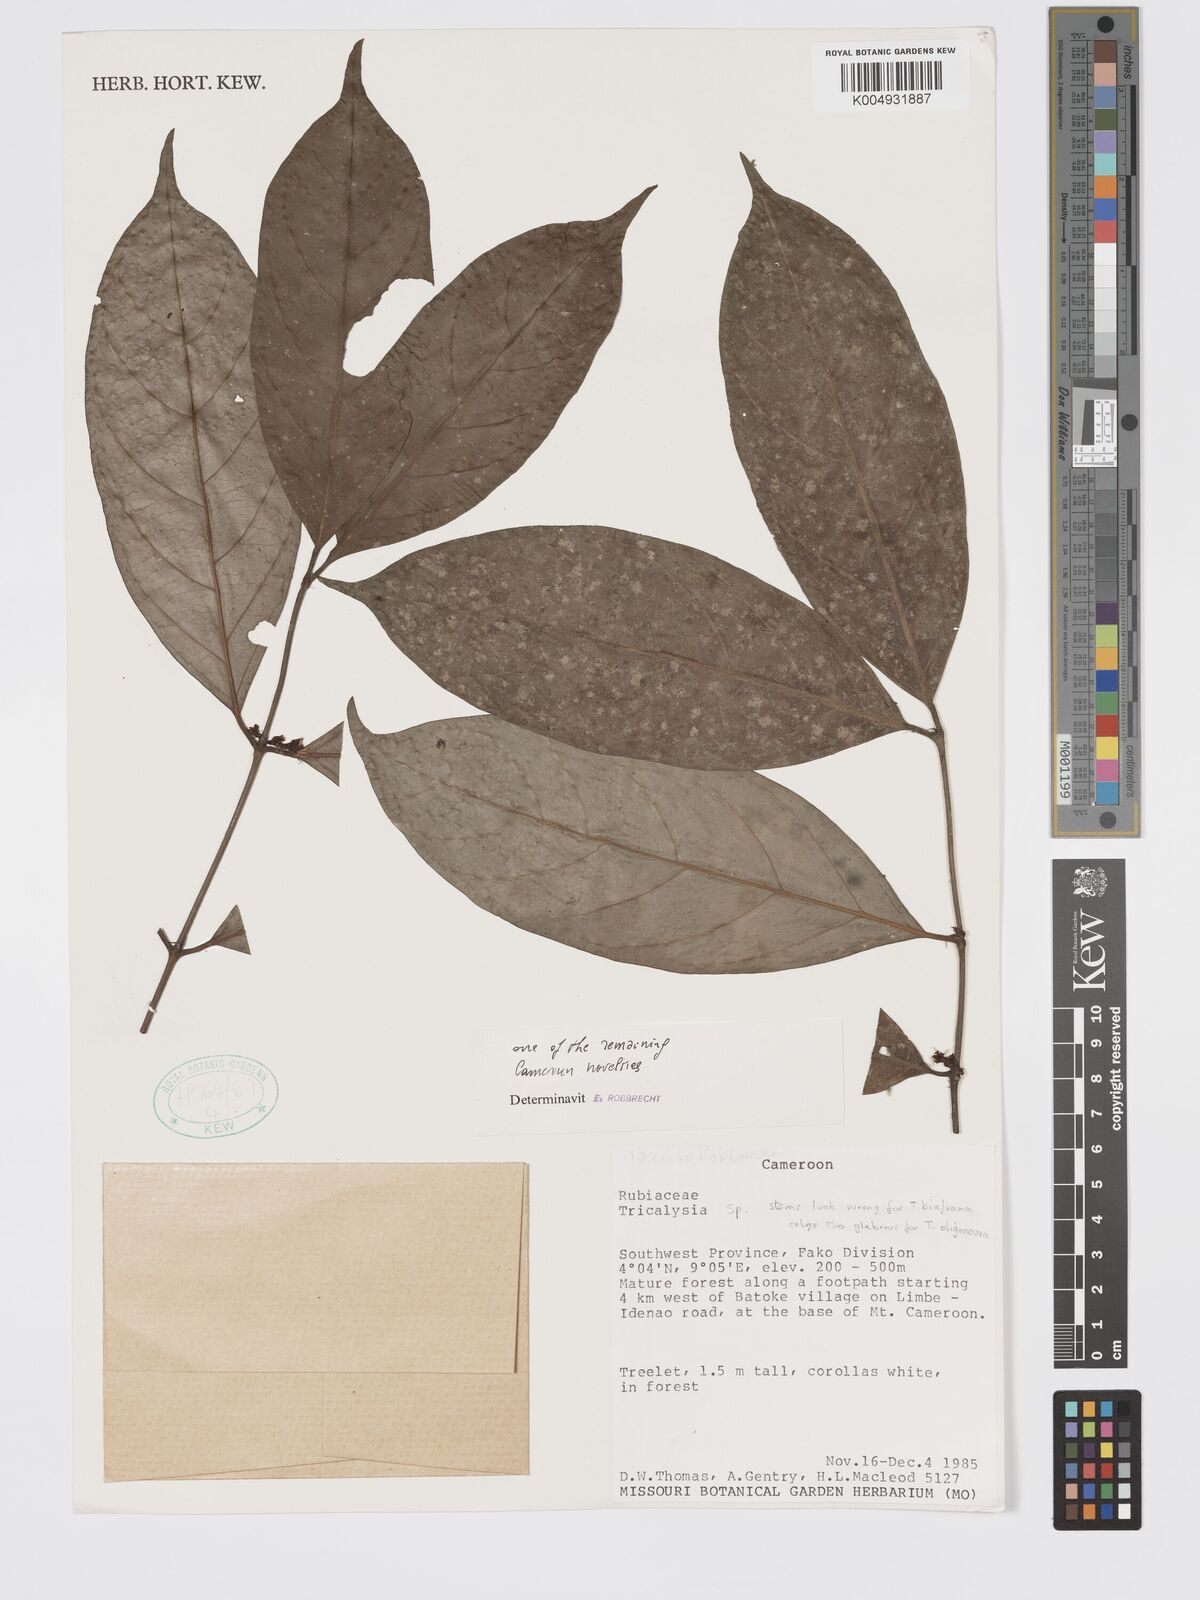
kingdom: Plantae
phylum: Tracheophyta
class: Magnoliopsida
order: Gentianales
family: Rubiaceae
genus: Tricalysia
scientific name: Tricalysia
